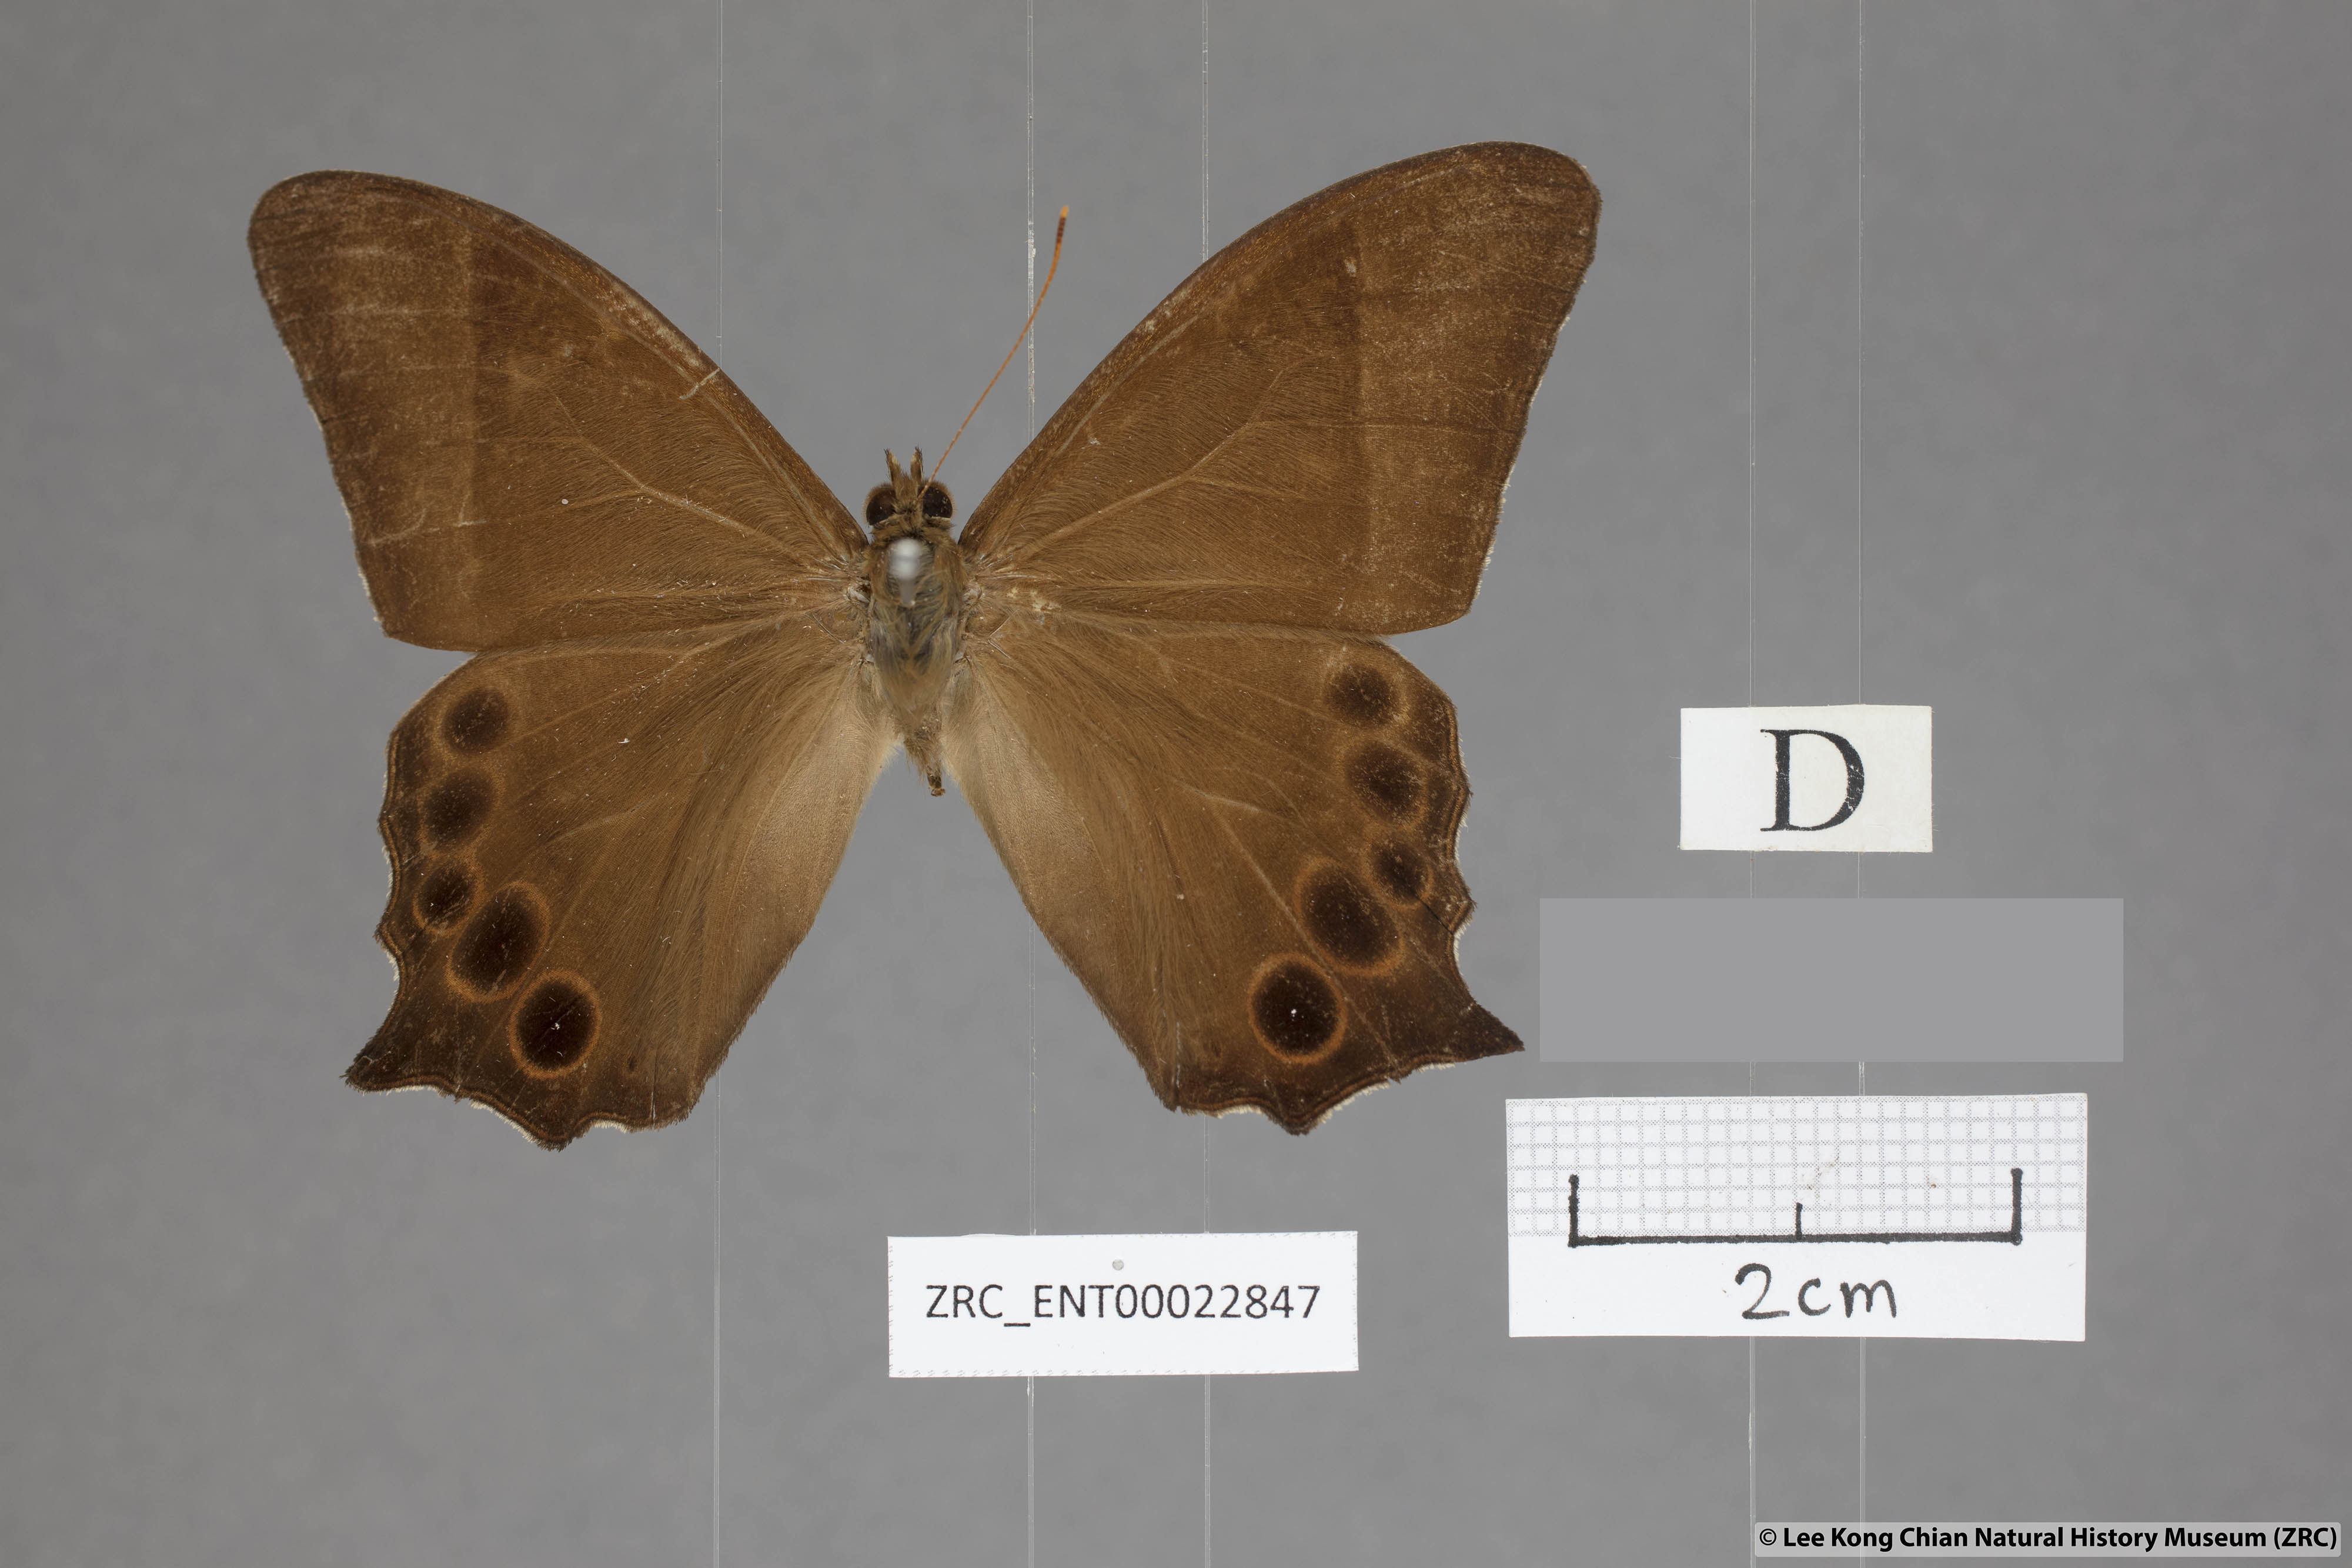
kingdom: Animalia
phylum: Arthropoda
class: Insecta
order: Lepidoptera
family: Nymphalidae
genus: Lethe
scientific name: Lethe vindhya
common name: Black forester
